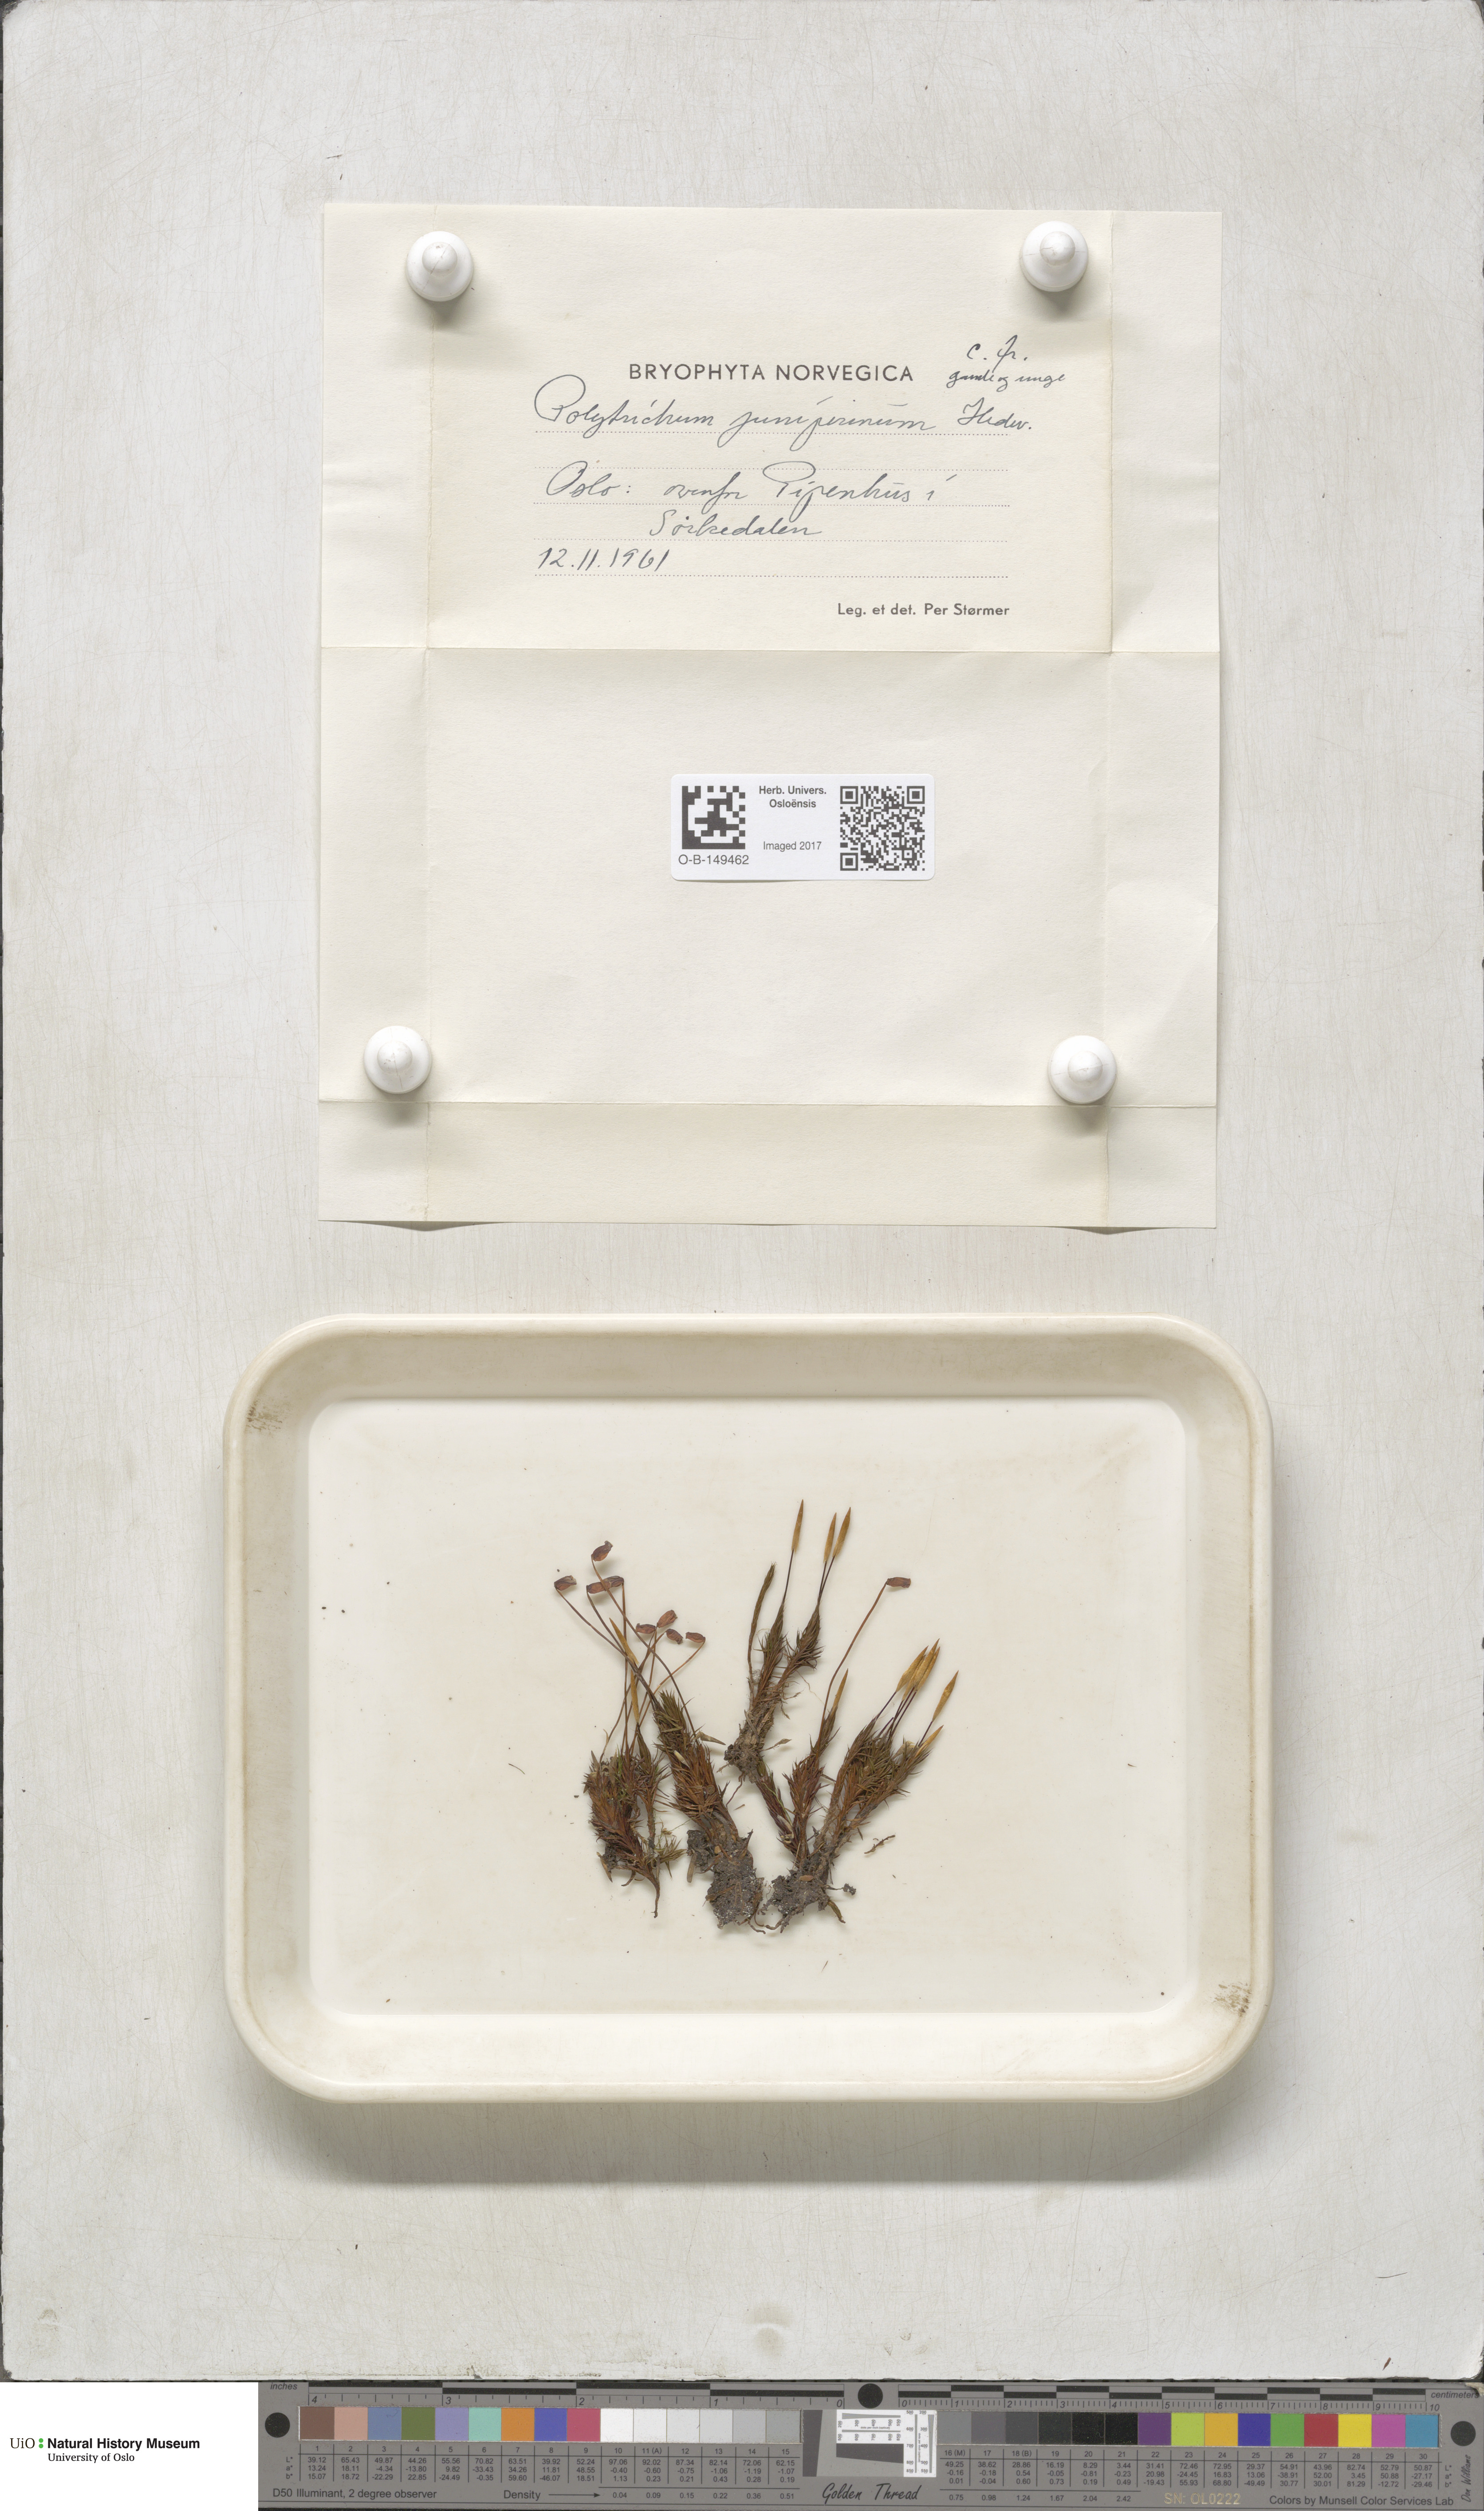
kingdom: Plantae
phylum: Bryophyta
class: Polytrichopsida
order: Polytrichales
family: Polytrichaceae
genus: Polytrichum
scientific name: Polytrichum juniperinum
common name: Juniper haircap moss
